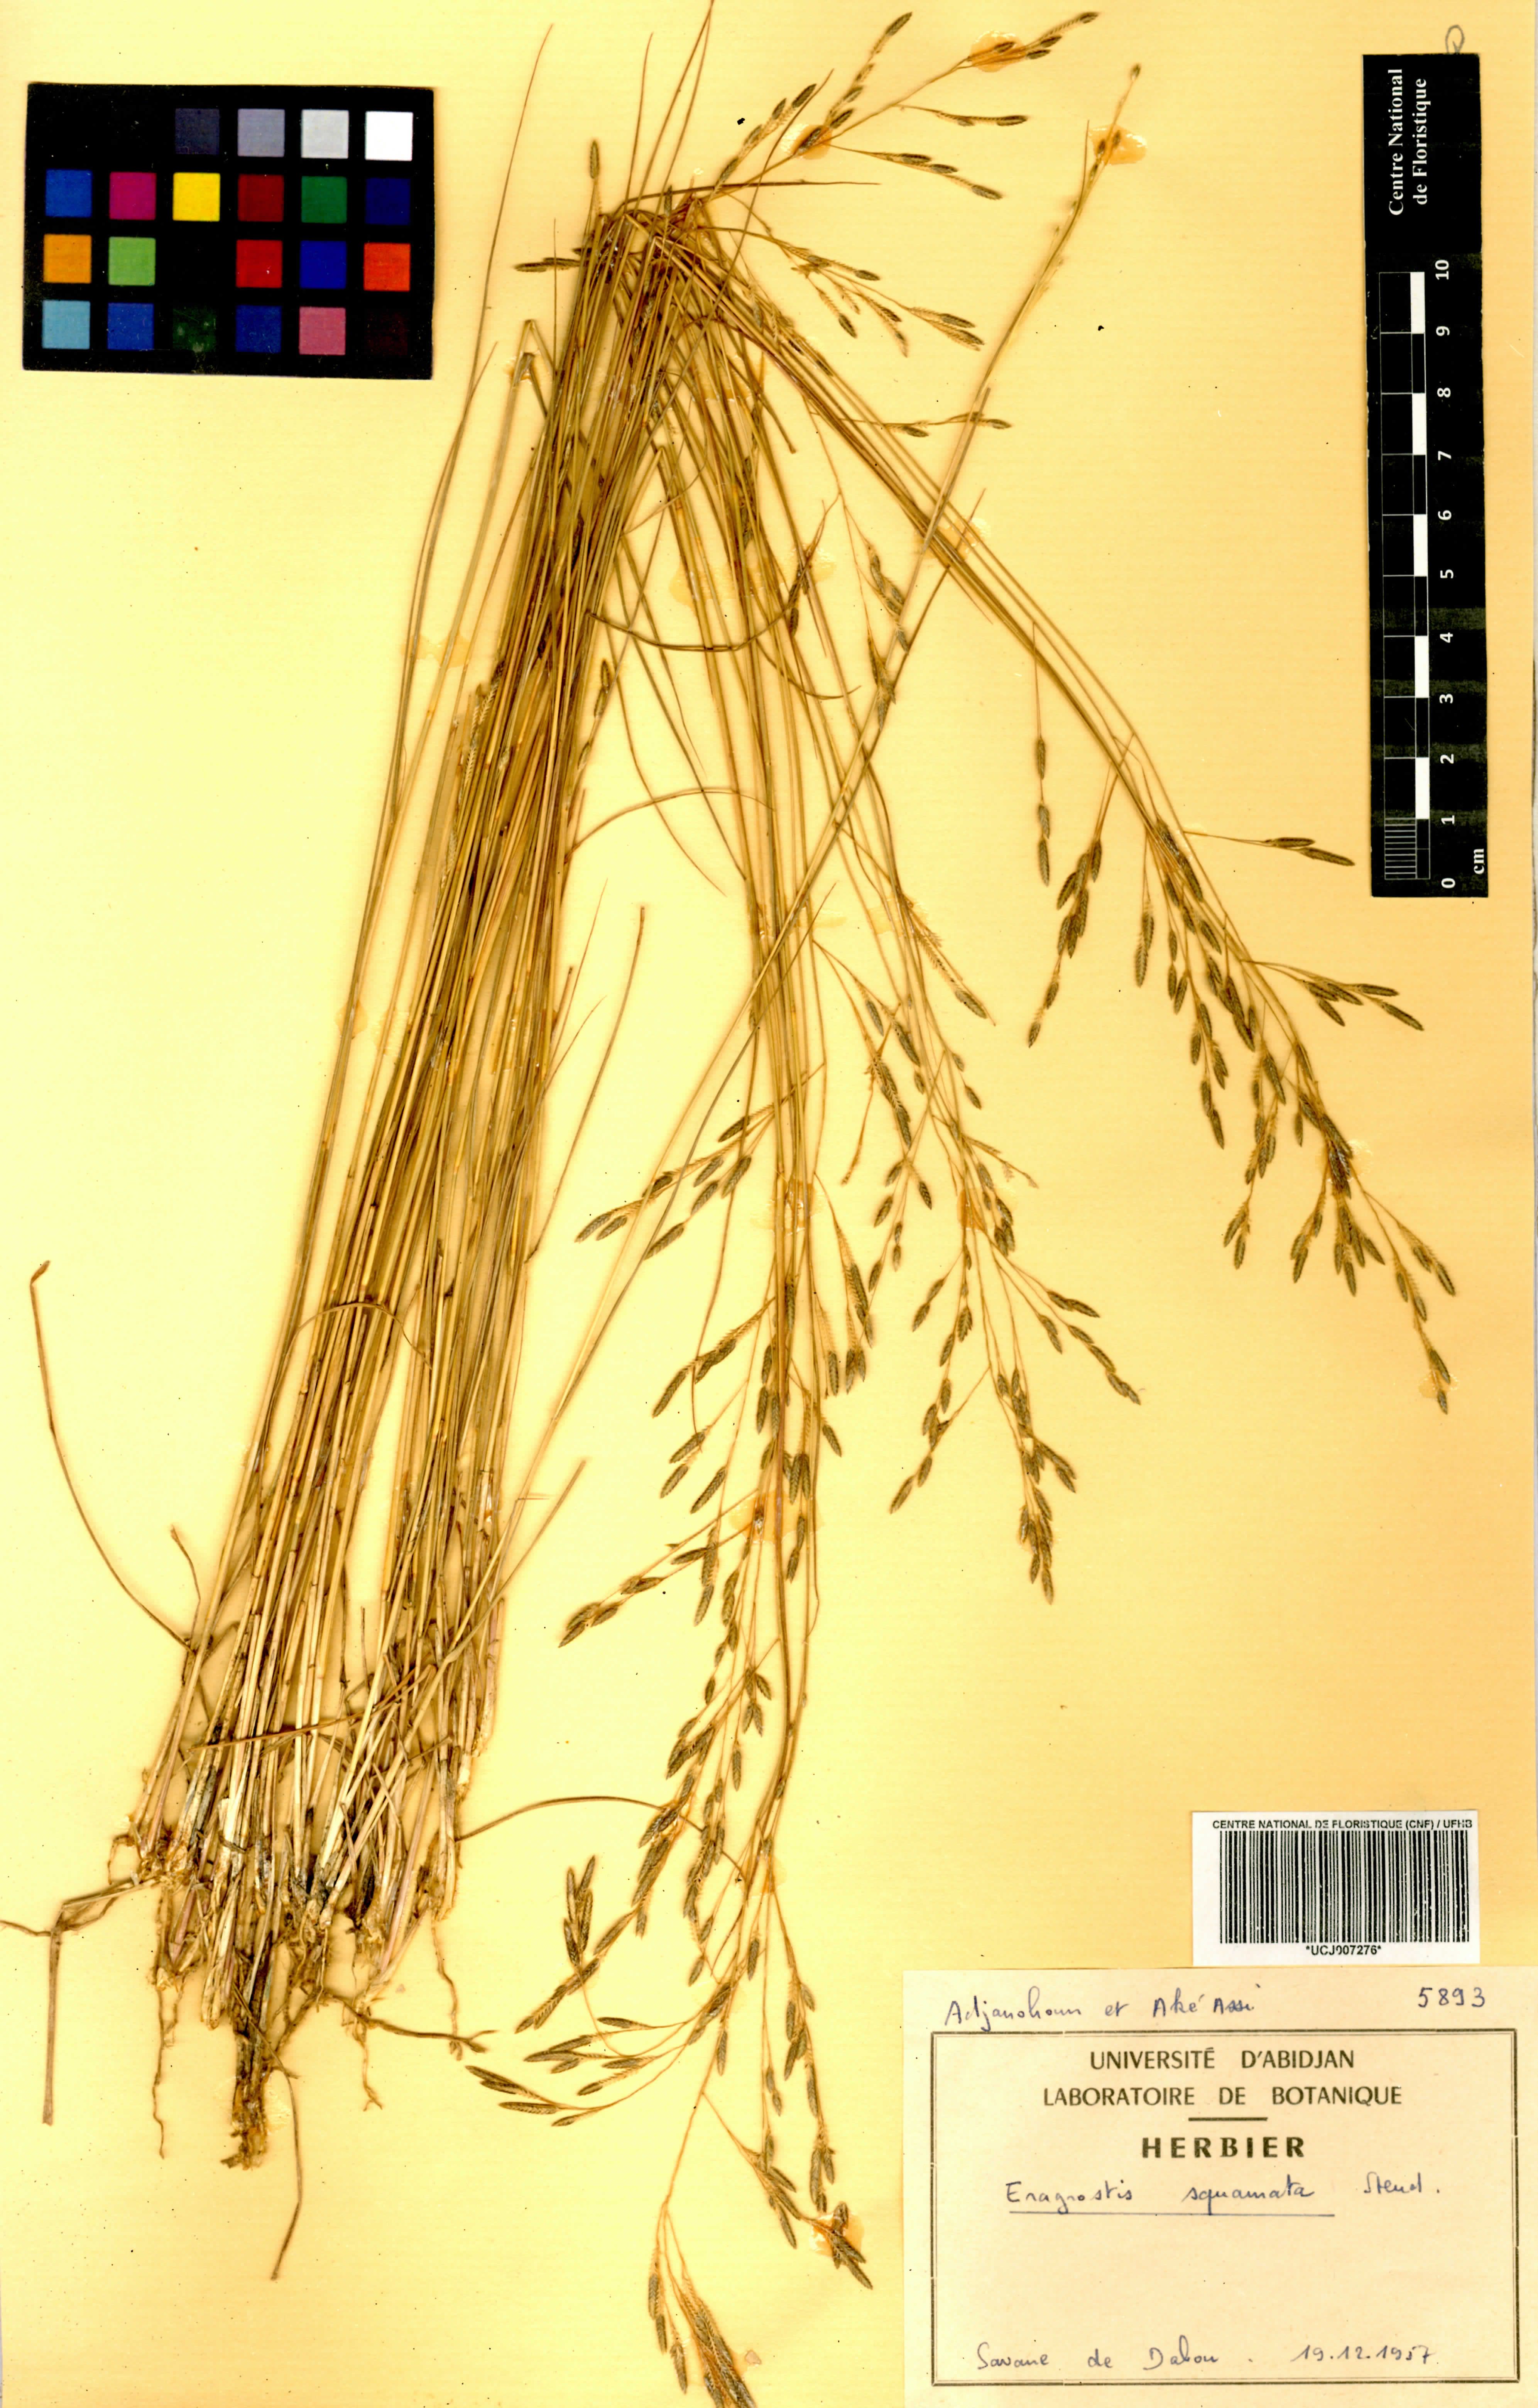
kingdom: Plantae
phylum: Tracheophyta
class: Liliopsida
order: Poales
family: Poaceae
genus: Eragrostis
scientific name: Eragrostis squamata
